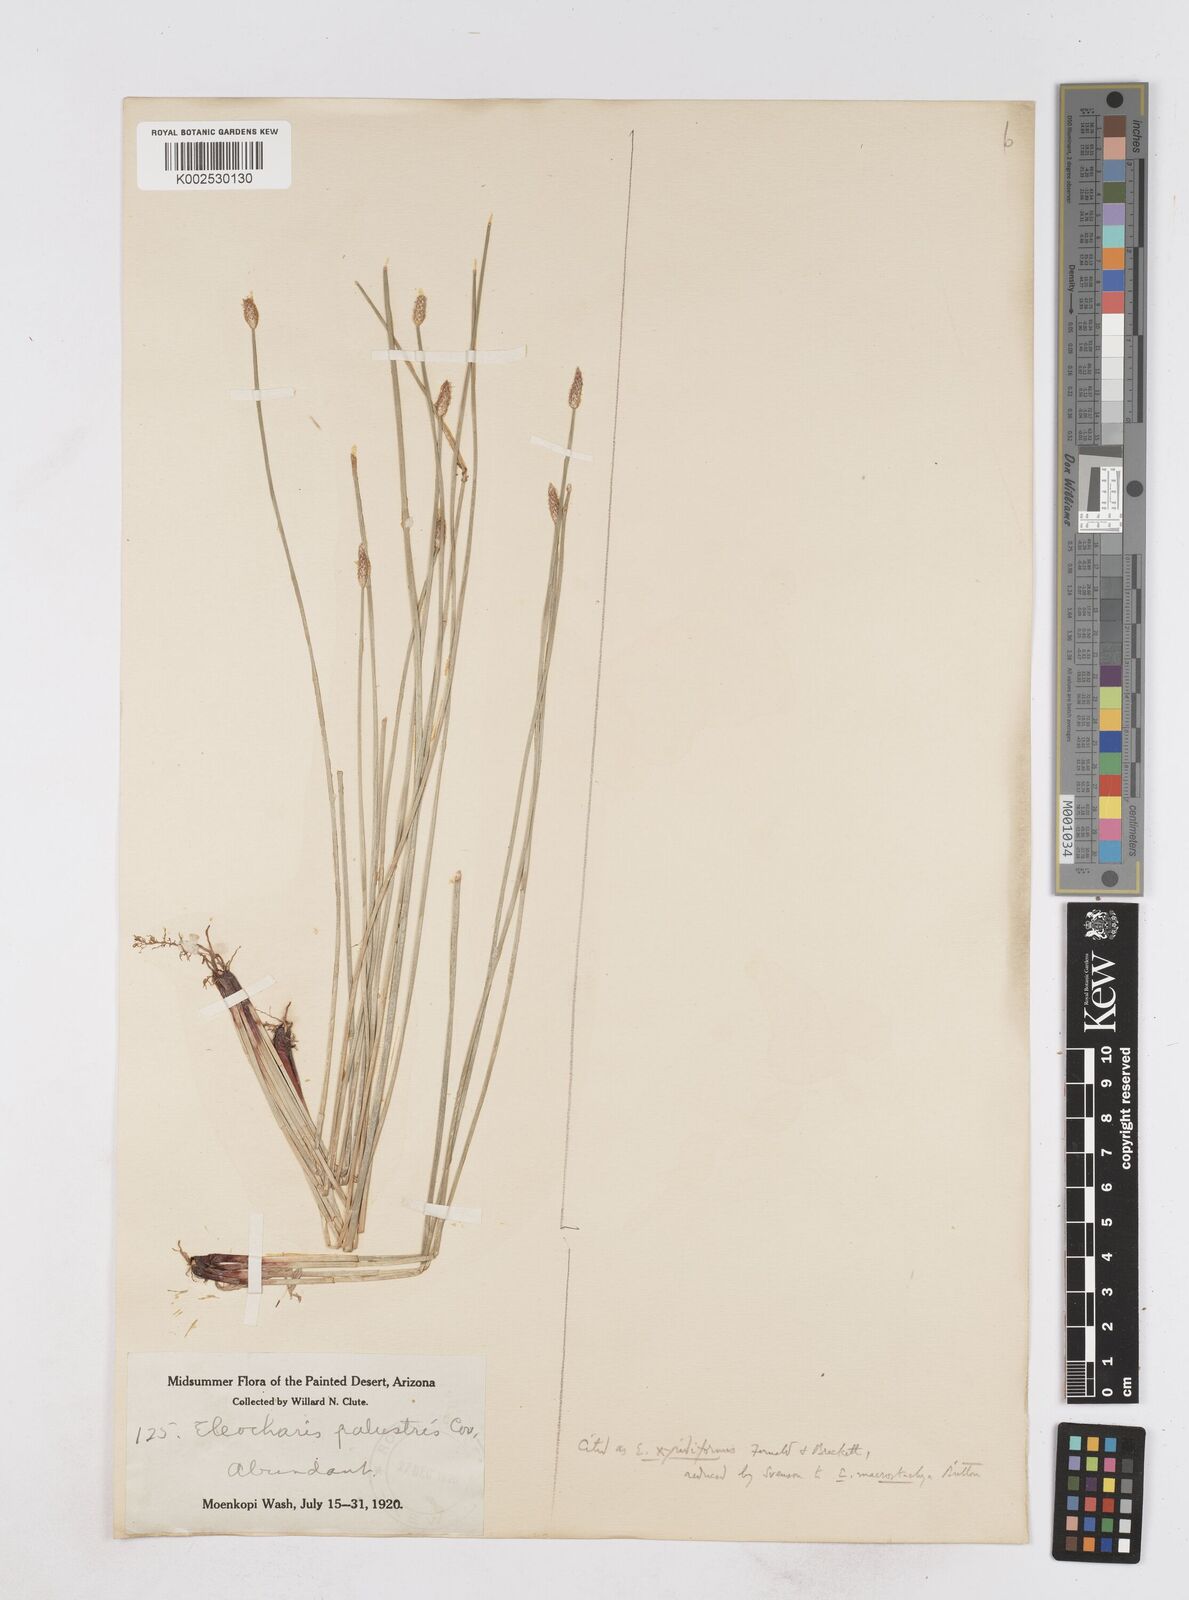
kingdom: Plantae
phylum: Tracheophyta
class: Liliopsida
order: Poales
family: Cyperaceae
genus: Eleocharis
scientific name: Eleocharis macrostachya
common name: Pale spikerush
